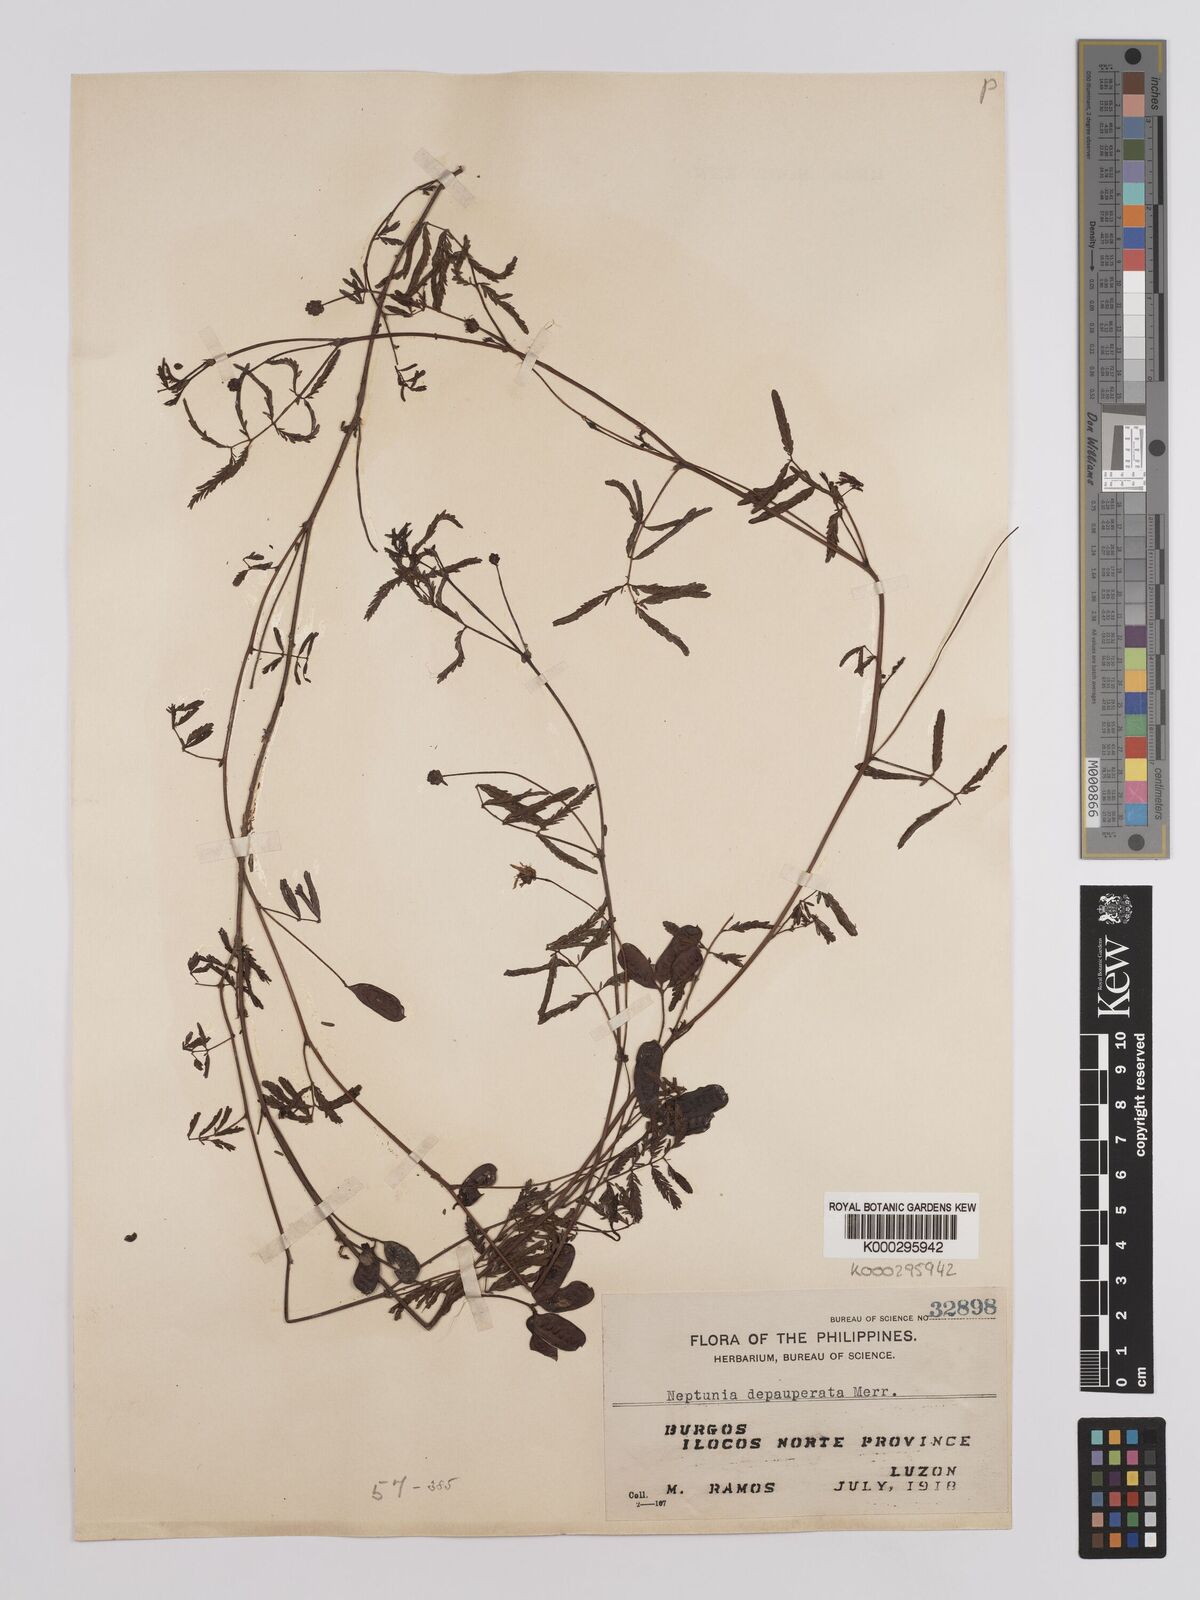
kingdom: Plantae
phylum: Tracheophyta
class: Magnoliopsida
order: Fabales
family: Fabaceae
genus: Neptunia
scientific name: Neptunia gracilis
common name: Sensitive-plant
